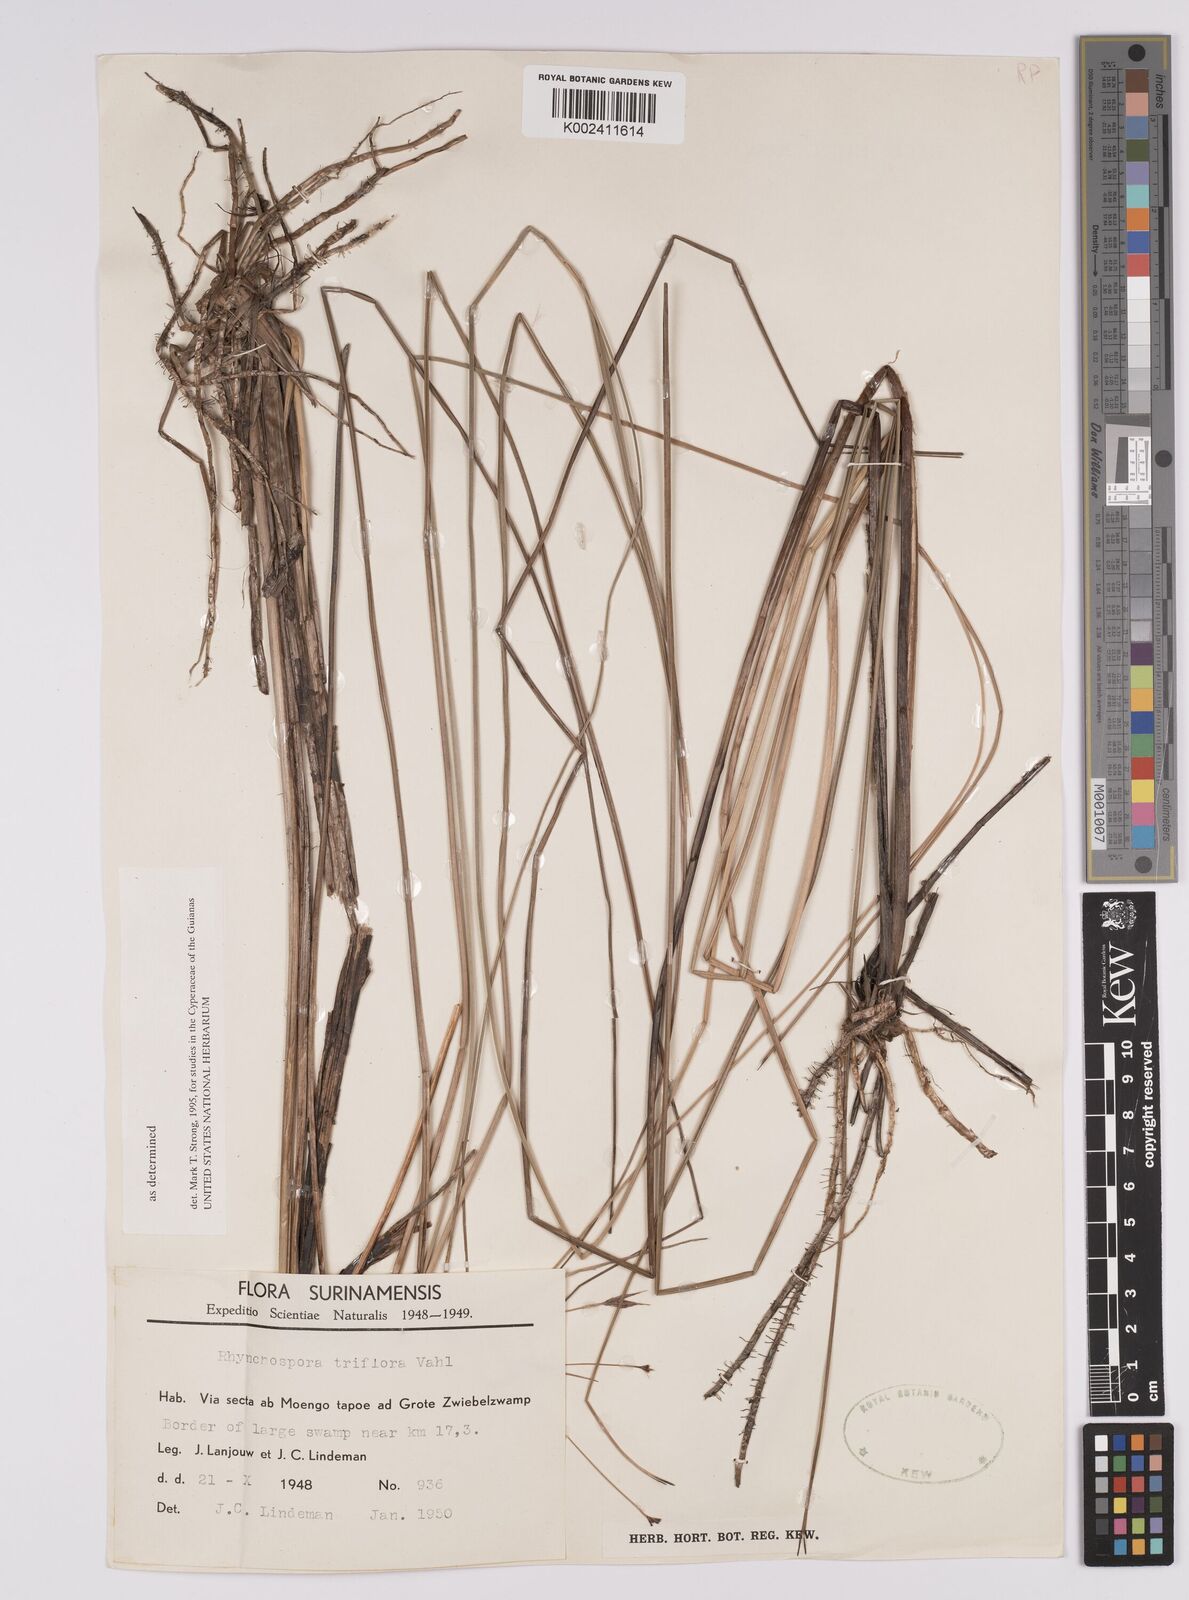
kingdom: Plantae
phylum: Tracheophyta
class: Liliopsida
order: Poales
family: Cyperaceae
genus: Rhynchospora
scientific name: Rhynchospora triflora
